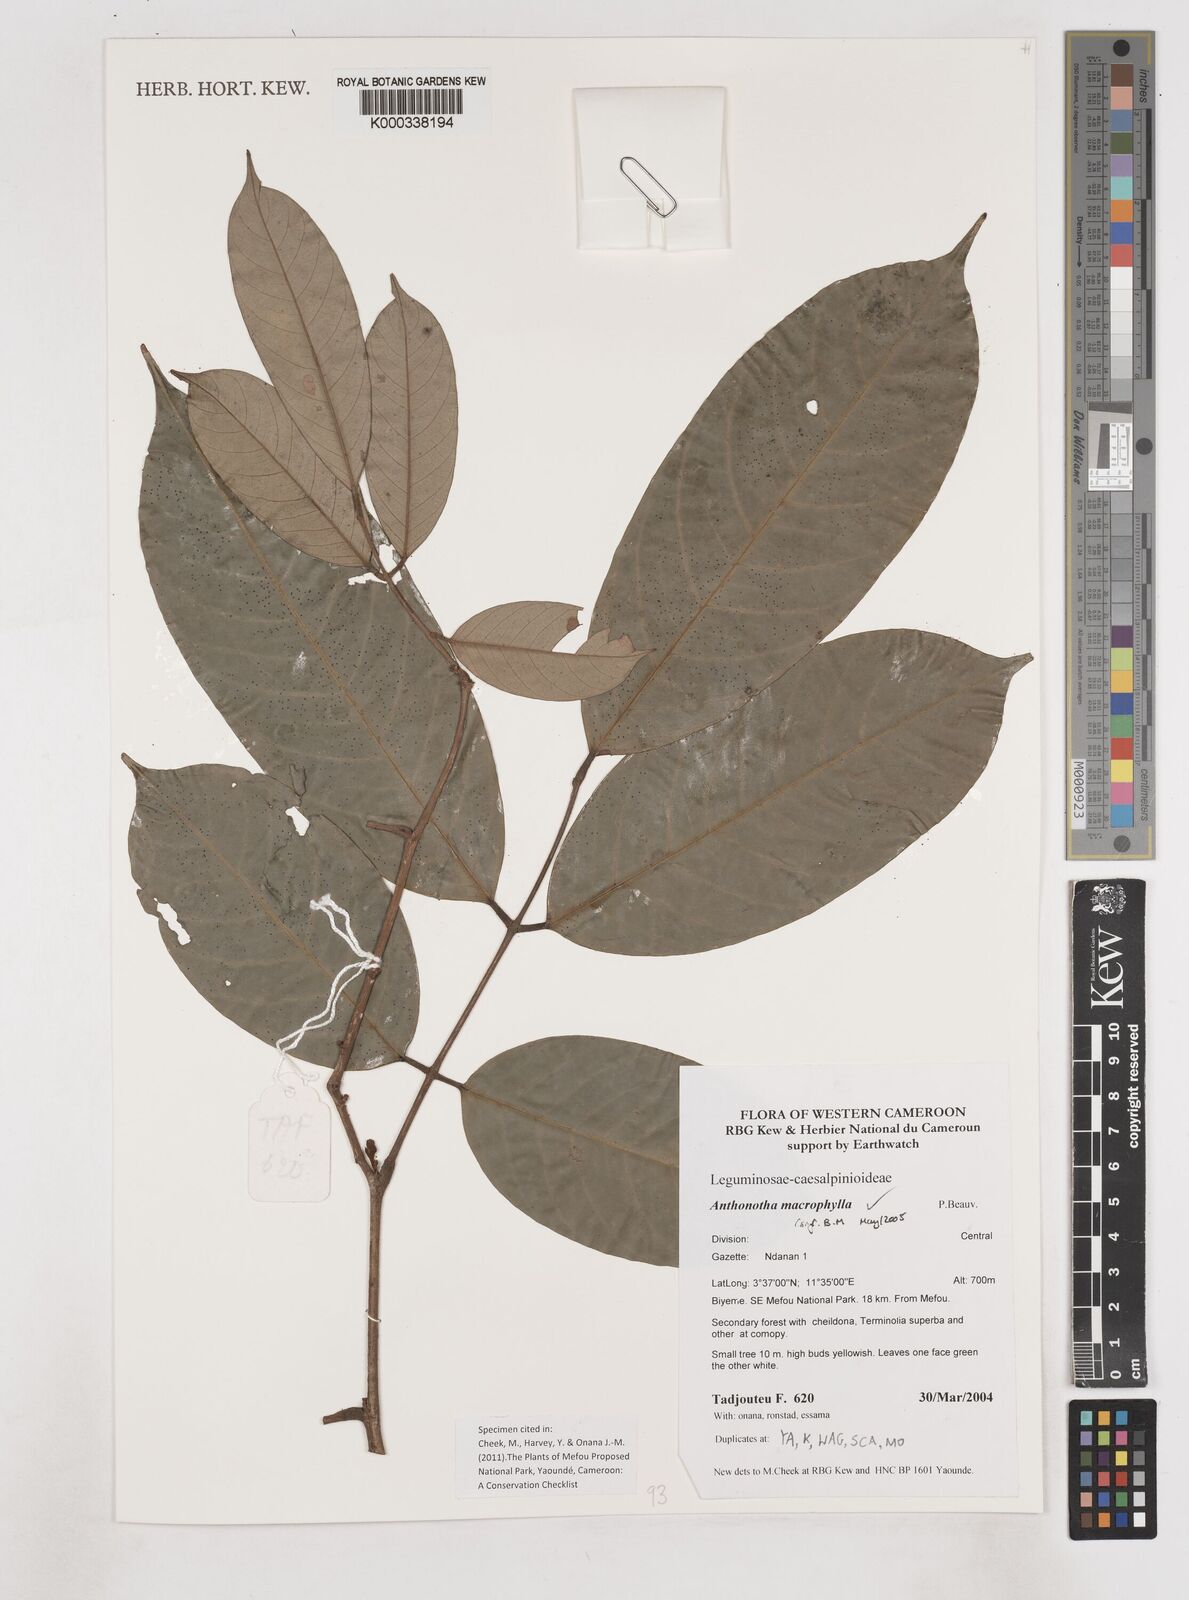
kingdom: Plantae
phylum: Tracheophyta
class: Magnoliopsida
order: Fabales
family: Fabaceae
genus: Anthonotha
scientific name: Anthonotha macrophylla
